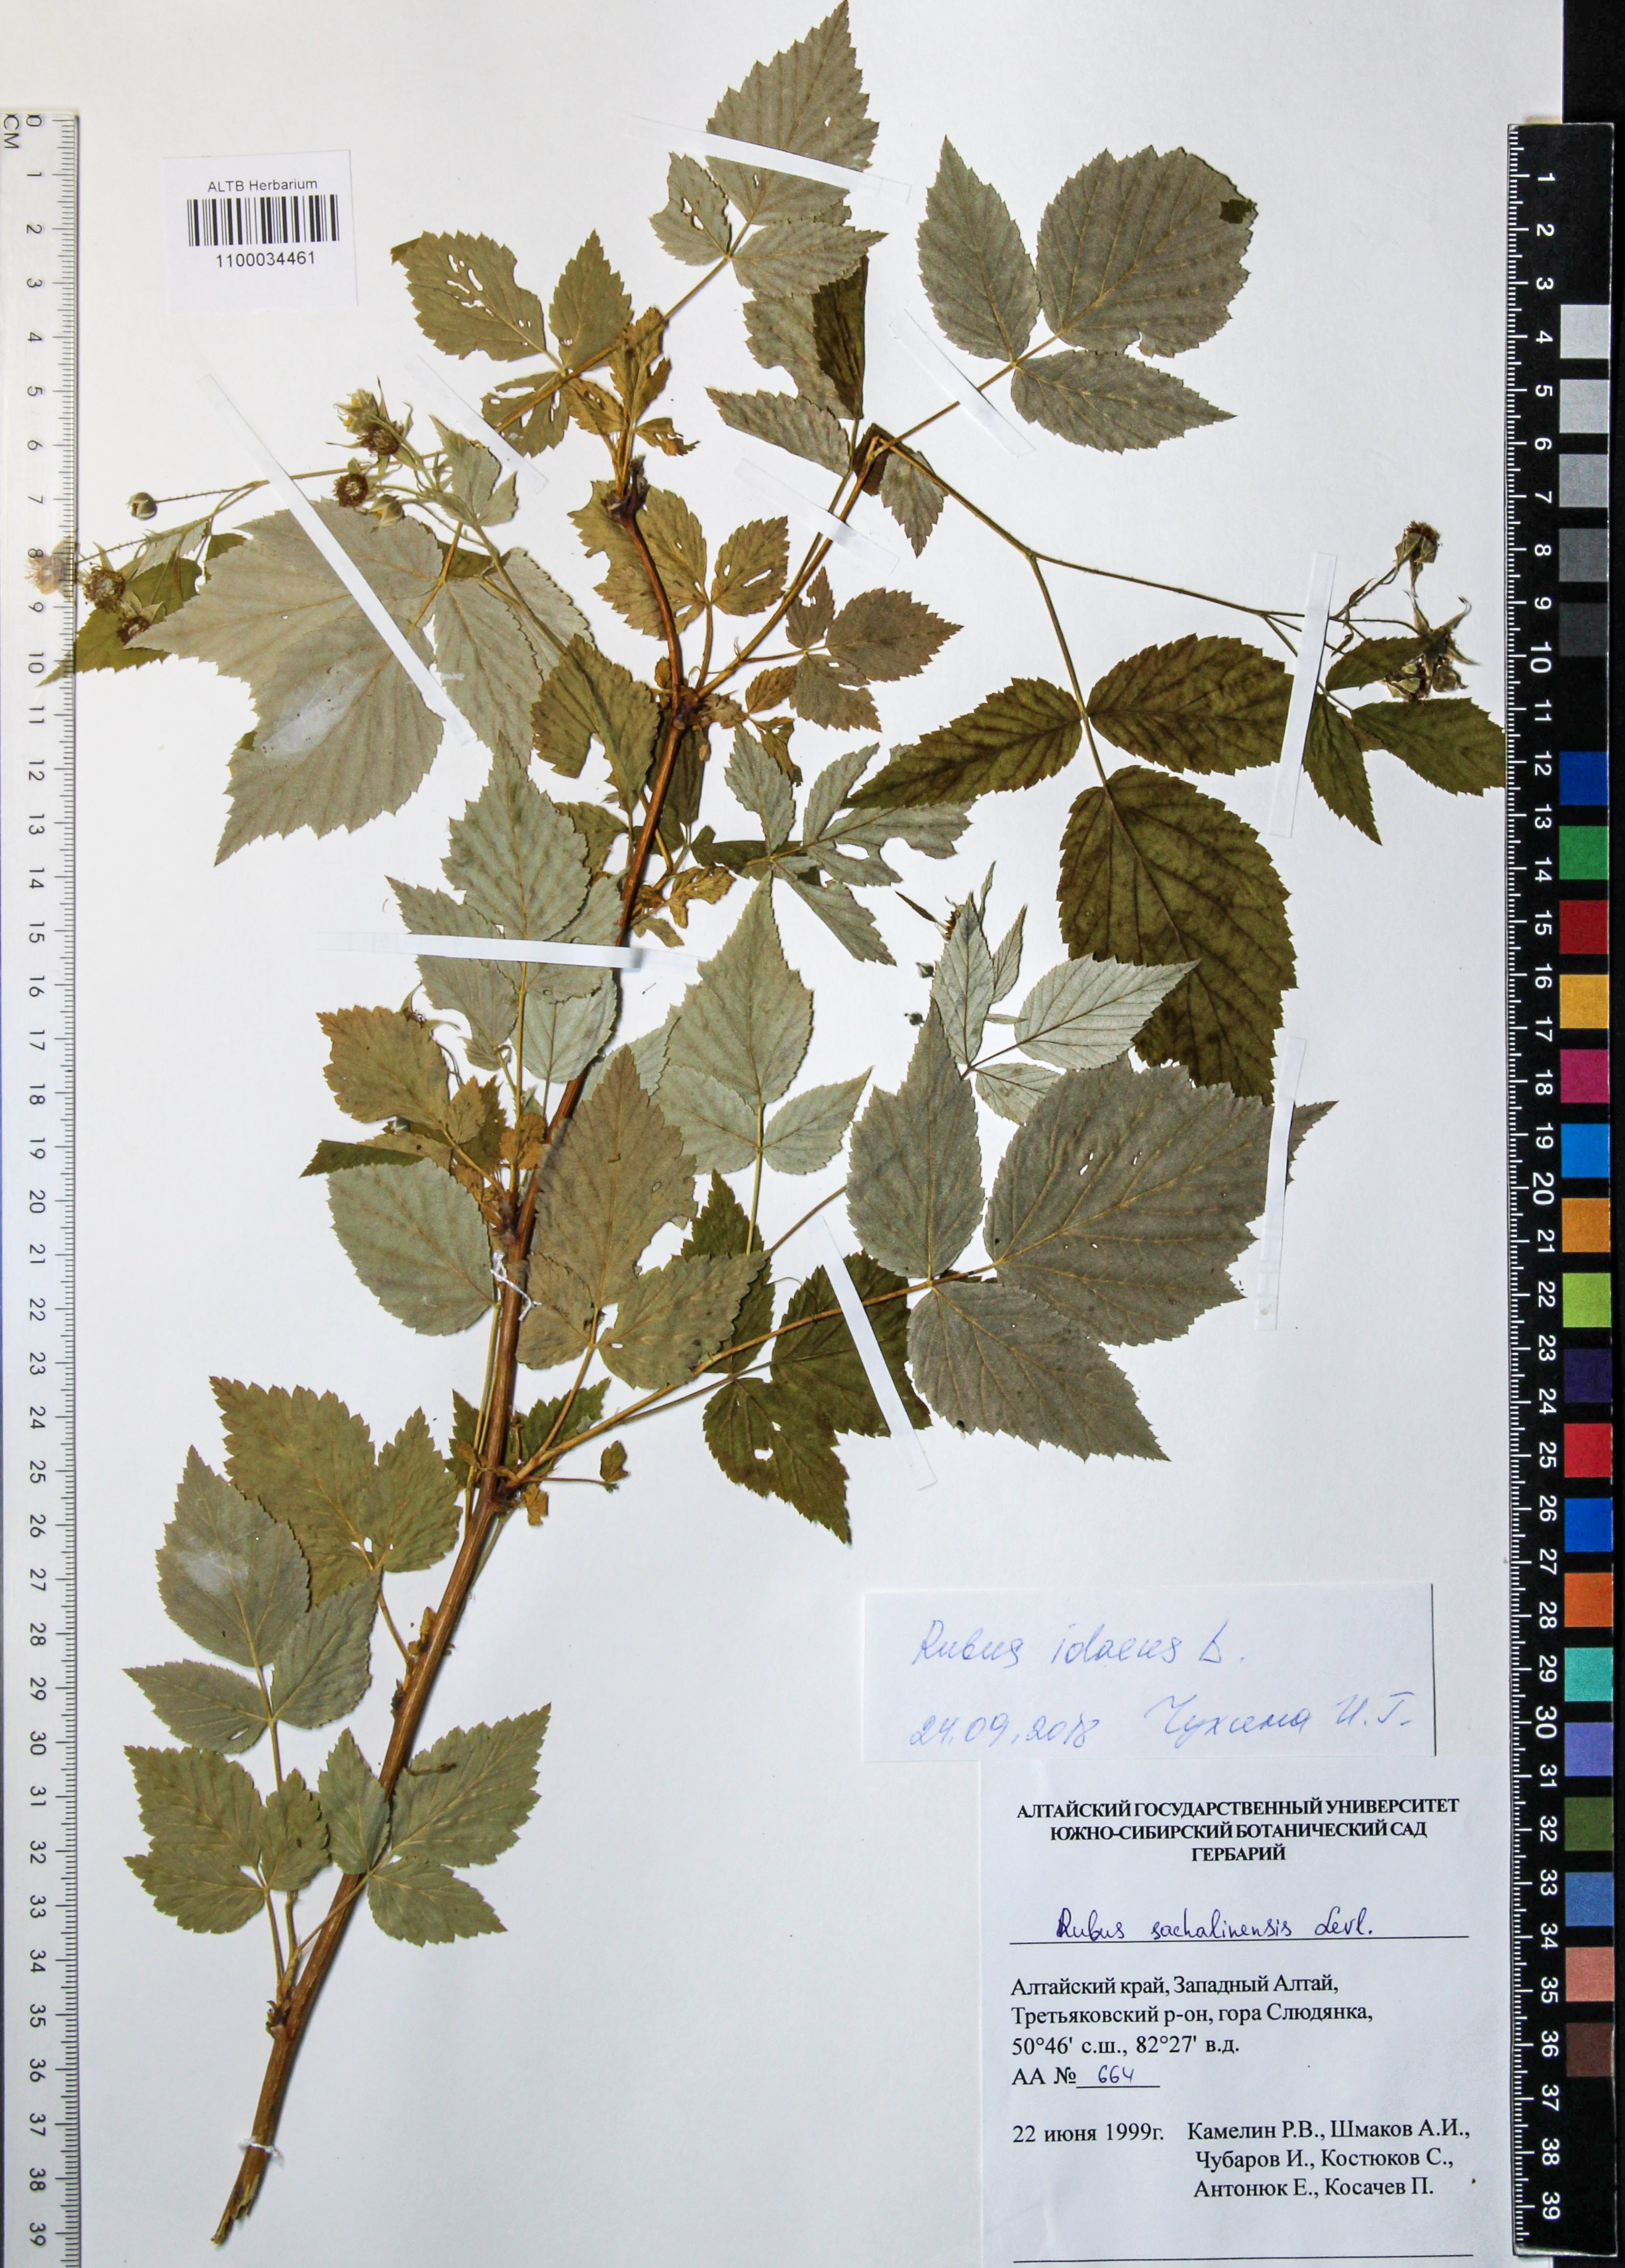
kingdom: Plantae
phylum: Tracheophyta
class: Magnoliopsida
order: Rosales
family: Rosaceae
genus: Rubus
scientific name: Rubus sachalinensis
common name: Red raspberry
